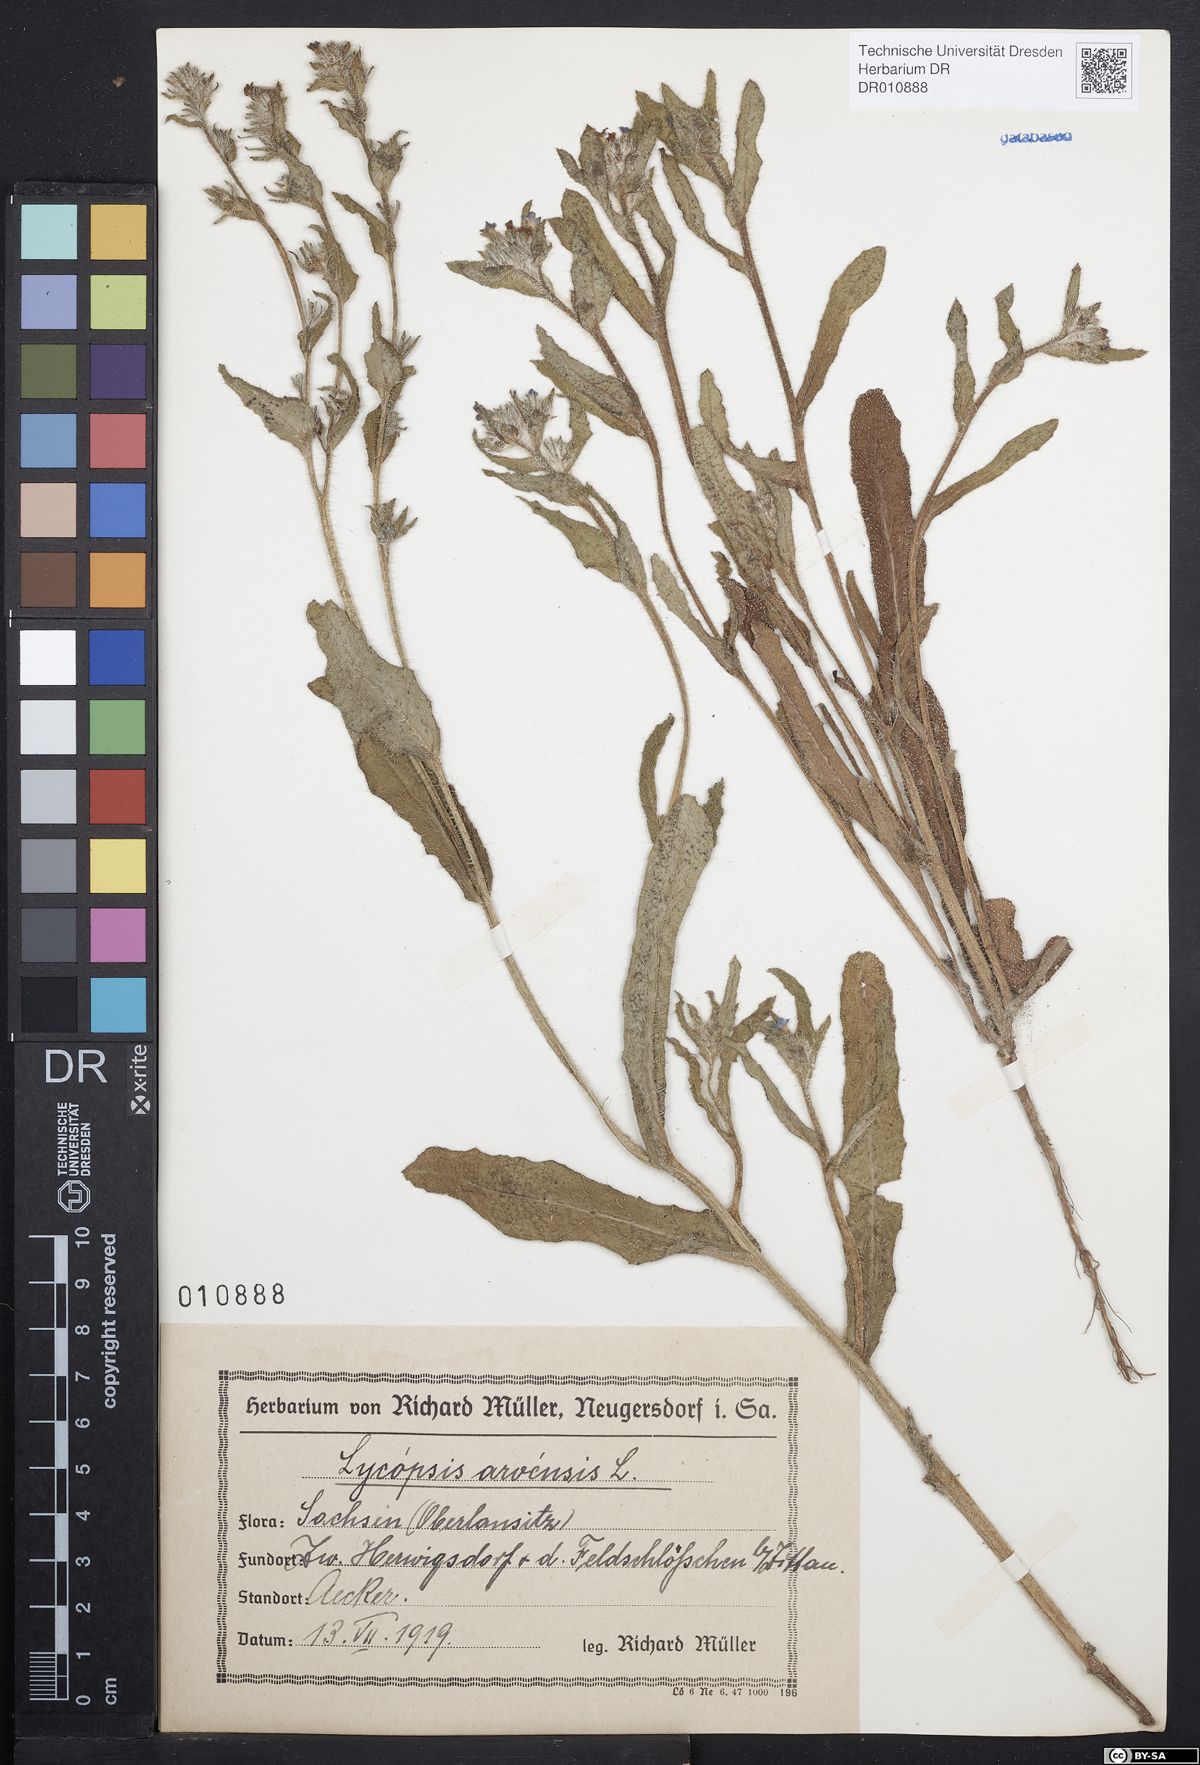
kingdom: Plantae
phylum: Tracheophyta
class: Magnoliopsida
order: Boraginales
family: Boraginaceae
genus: Lycopsis
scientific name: Lycopsis arvensis
